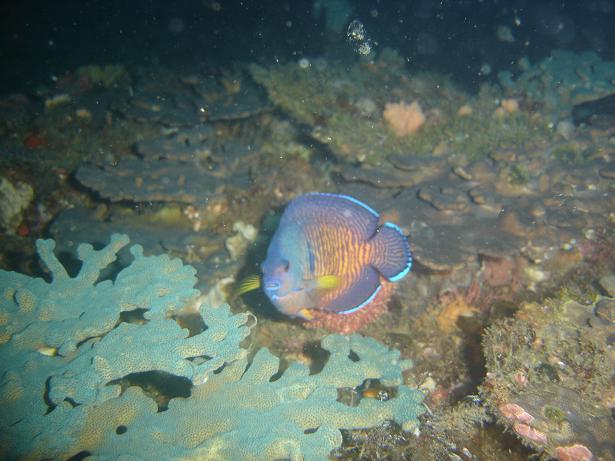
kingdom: Animalia
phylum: Chordata
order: Perciformes
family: Pomacanthidae
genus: Centropyge
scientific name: Centropyge bispinosa
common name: Coral beauty
